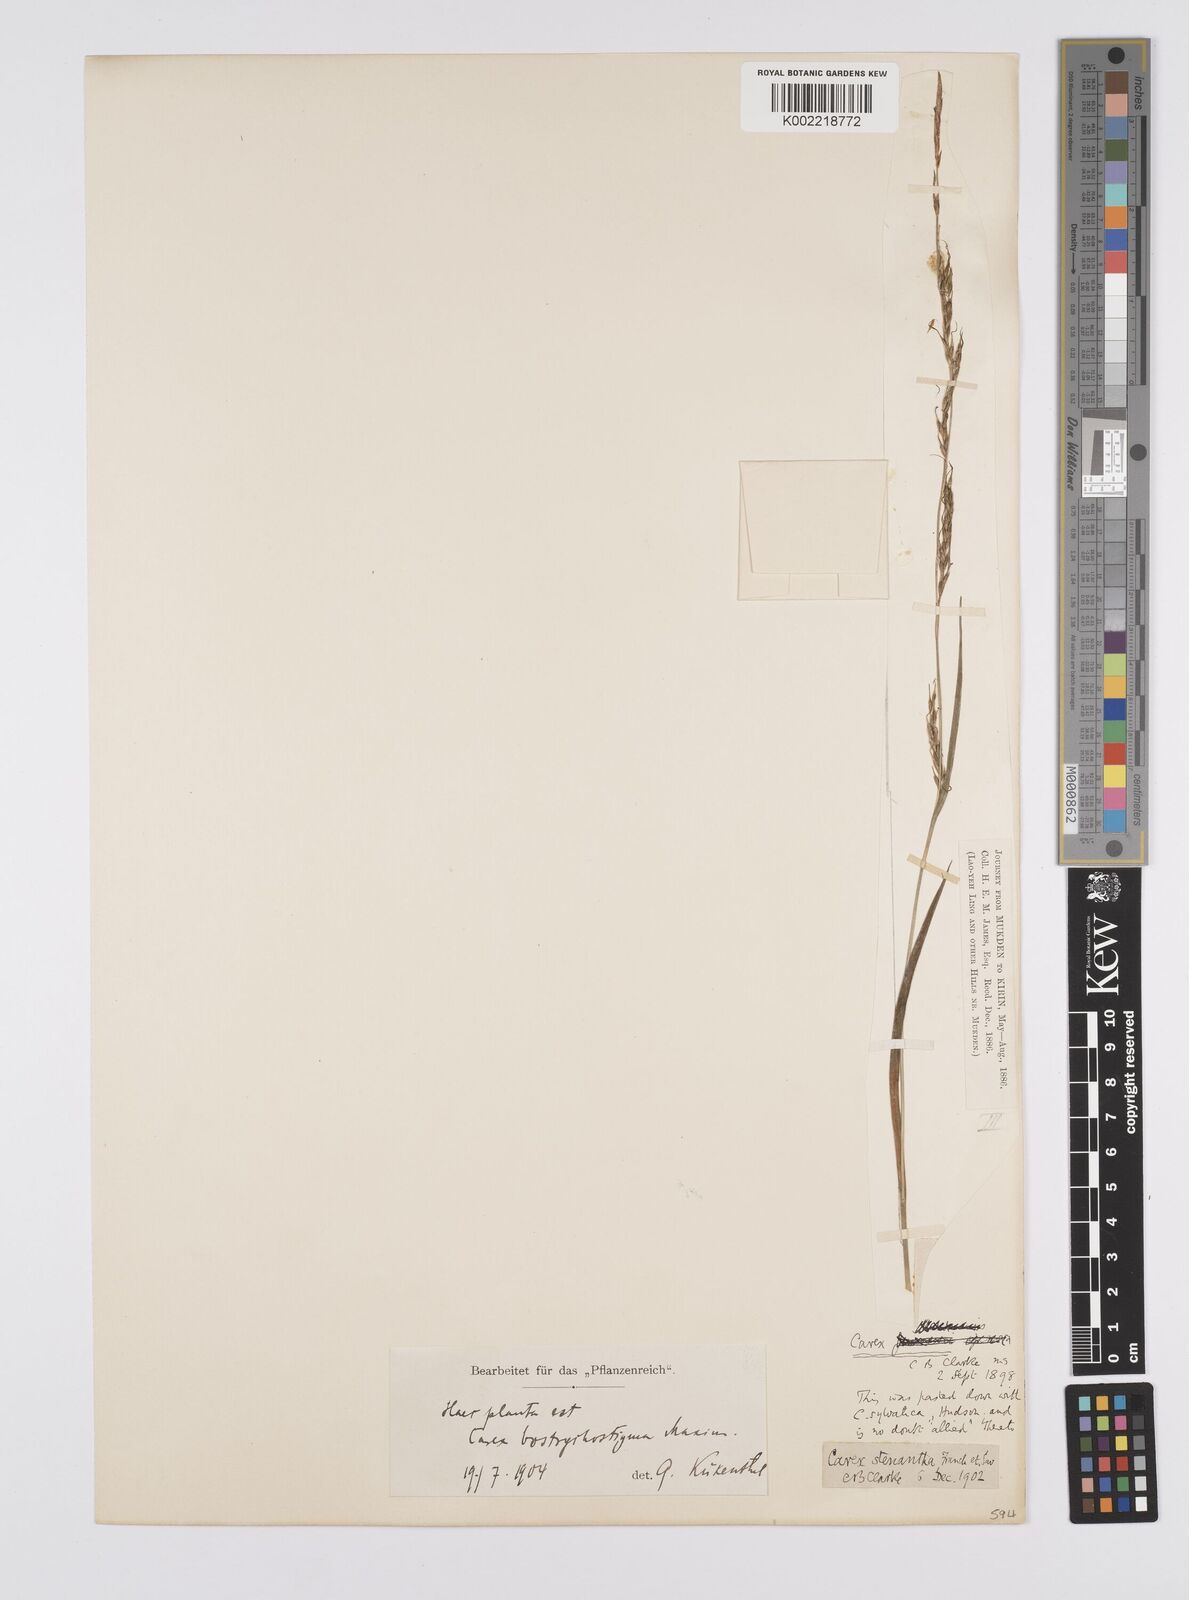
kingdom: Plantae
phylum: Tracheophyta
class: Liliopsida
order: Poales
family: Cyperaceae
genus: Carex
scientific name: Carex bostrychostigma
